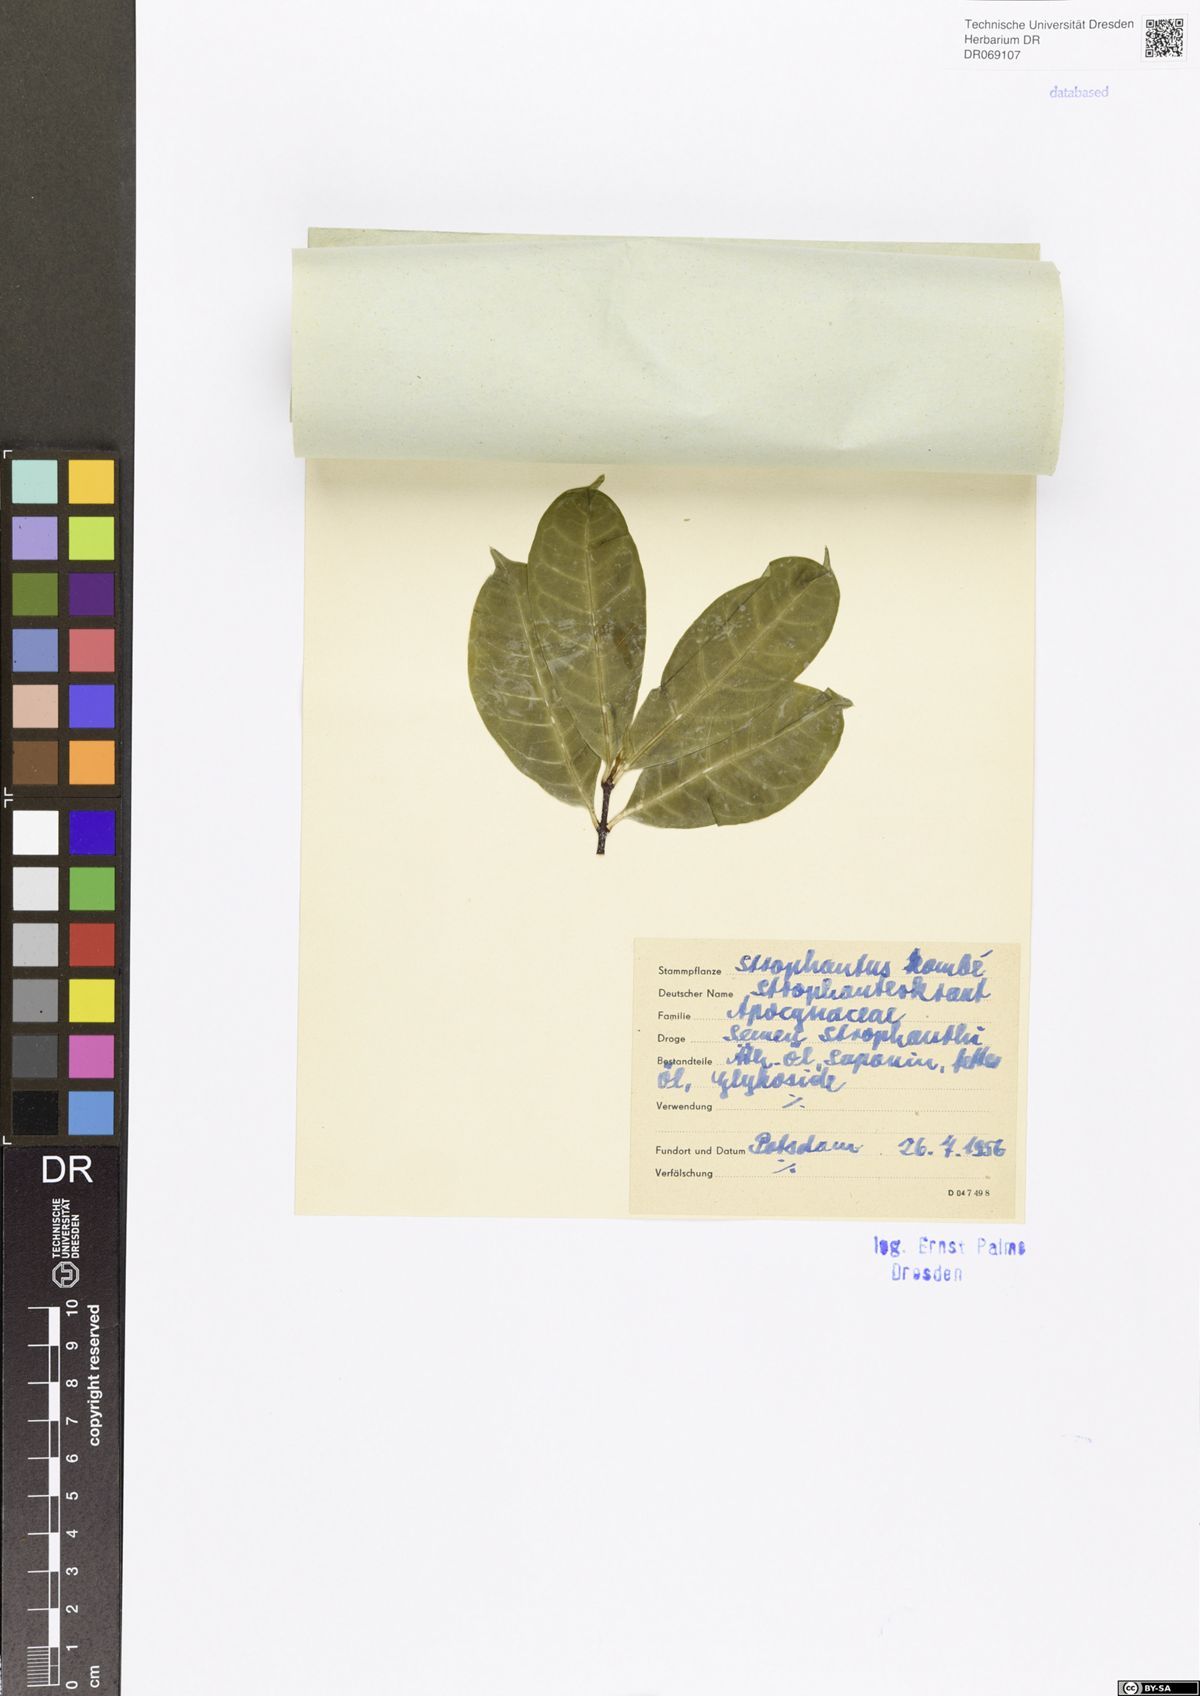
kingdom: Plantae
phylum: Tracheophyta
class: Magnoliopsida
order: Gentianales
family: Apocynaceae
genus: Strophanthus
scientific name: Strophanthus kombe
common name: Kombe
